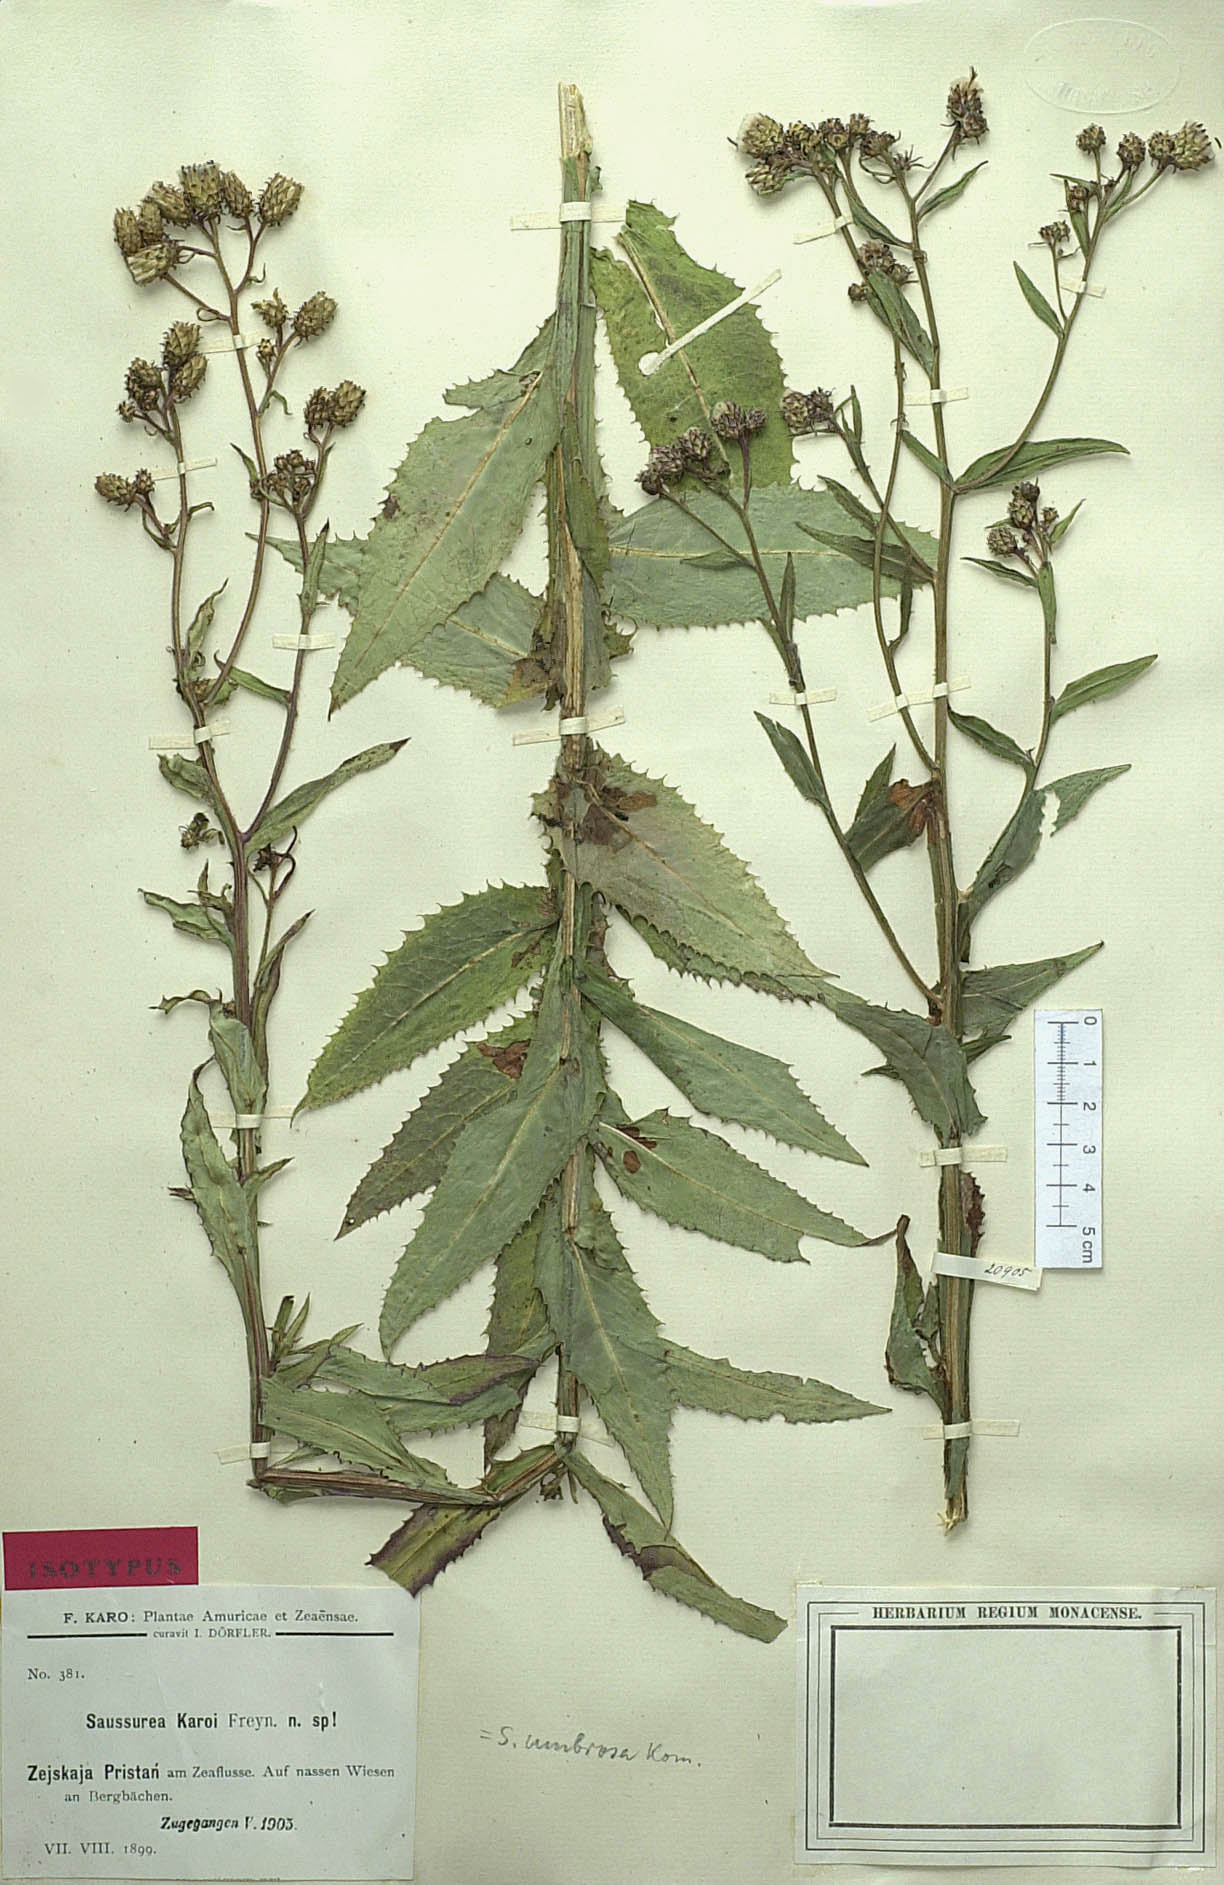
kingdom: Plantae
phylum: Tracheophyta
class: Magnoliopsida
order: Asterales
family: Asteraceae
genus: Saussurea
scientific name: Saussurea umbrosa
